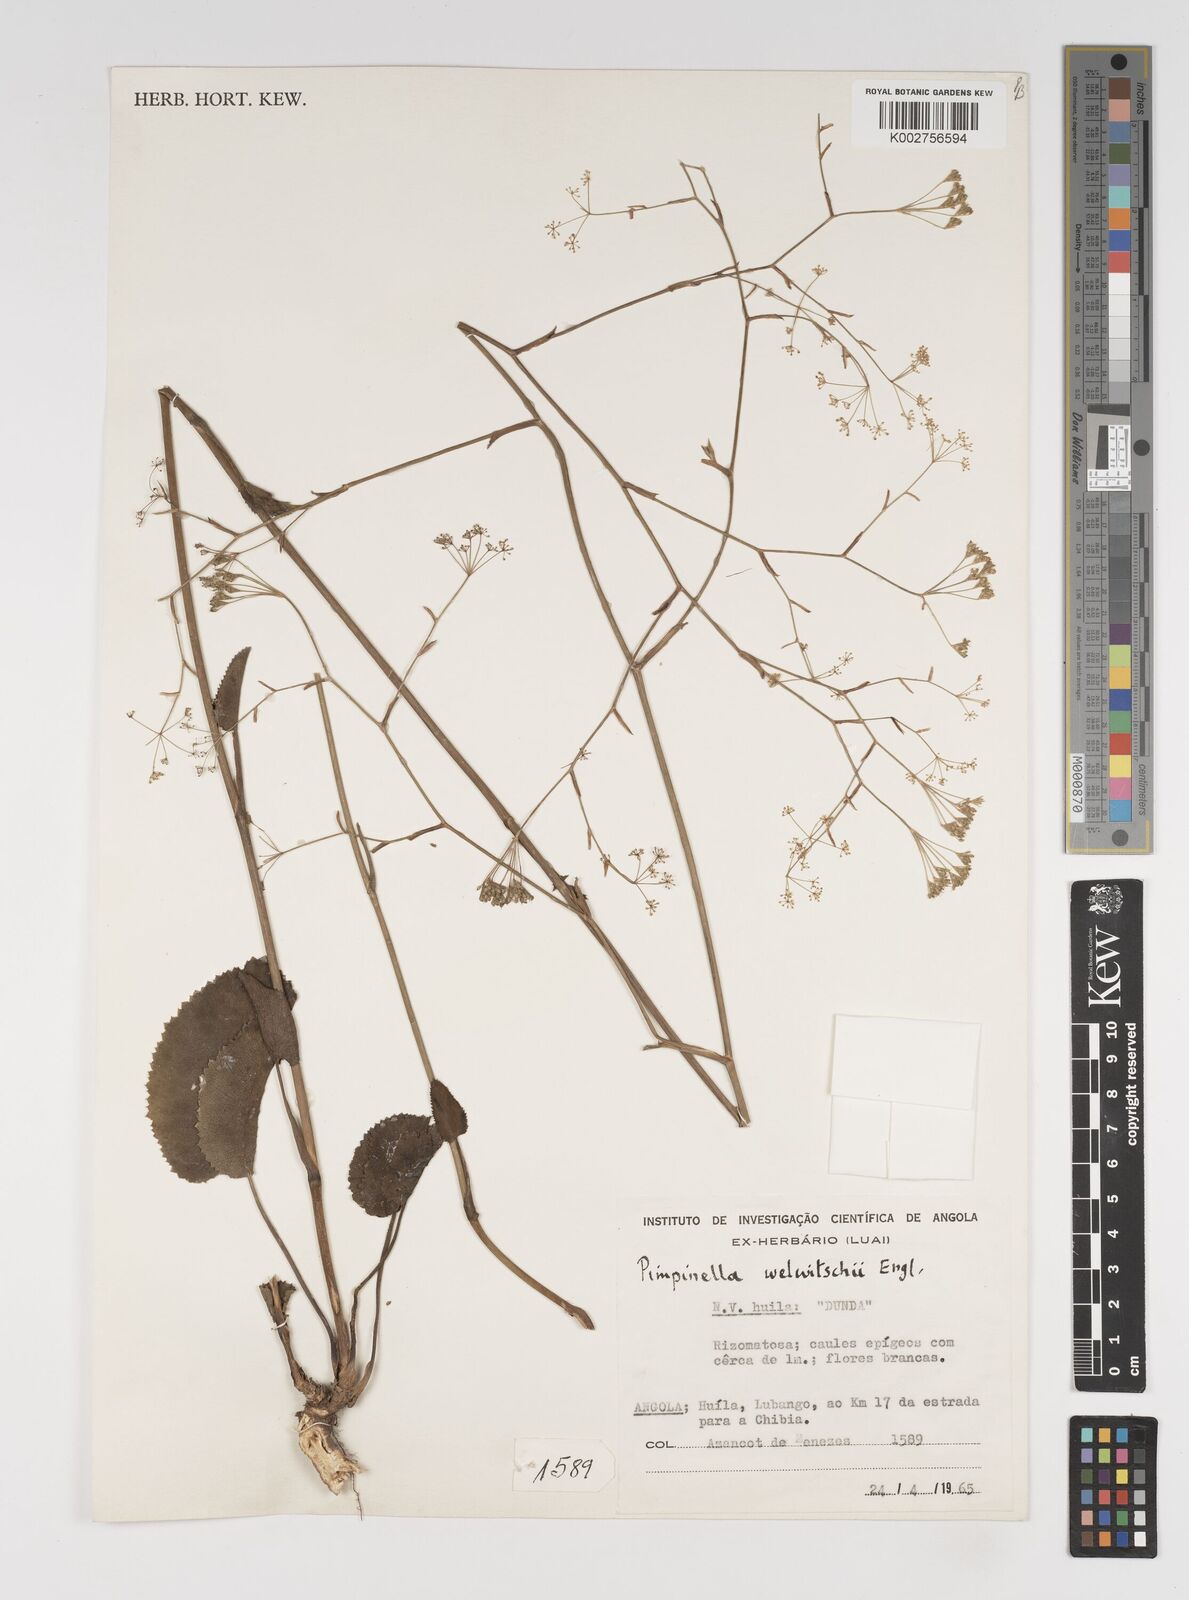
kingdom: Plantae
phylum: Tracheophyta
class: Magnoliopsida
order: Apiales
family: Apiaceae
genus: Pimpinella
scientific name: Pimpinella huillensis
